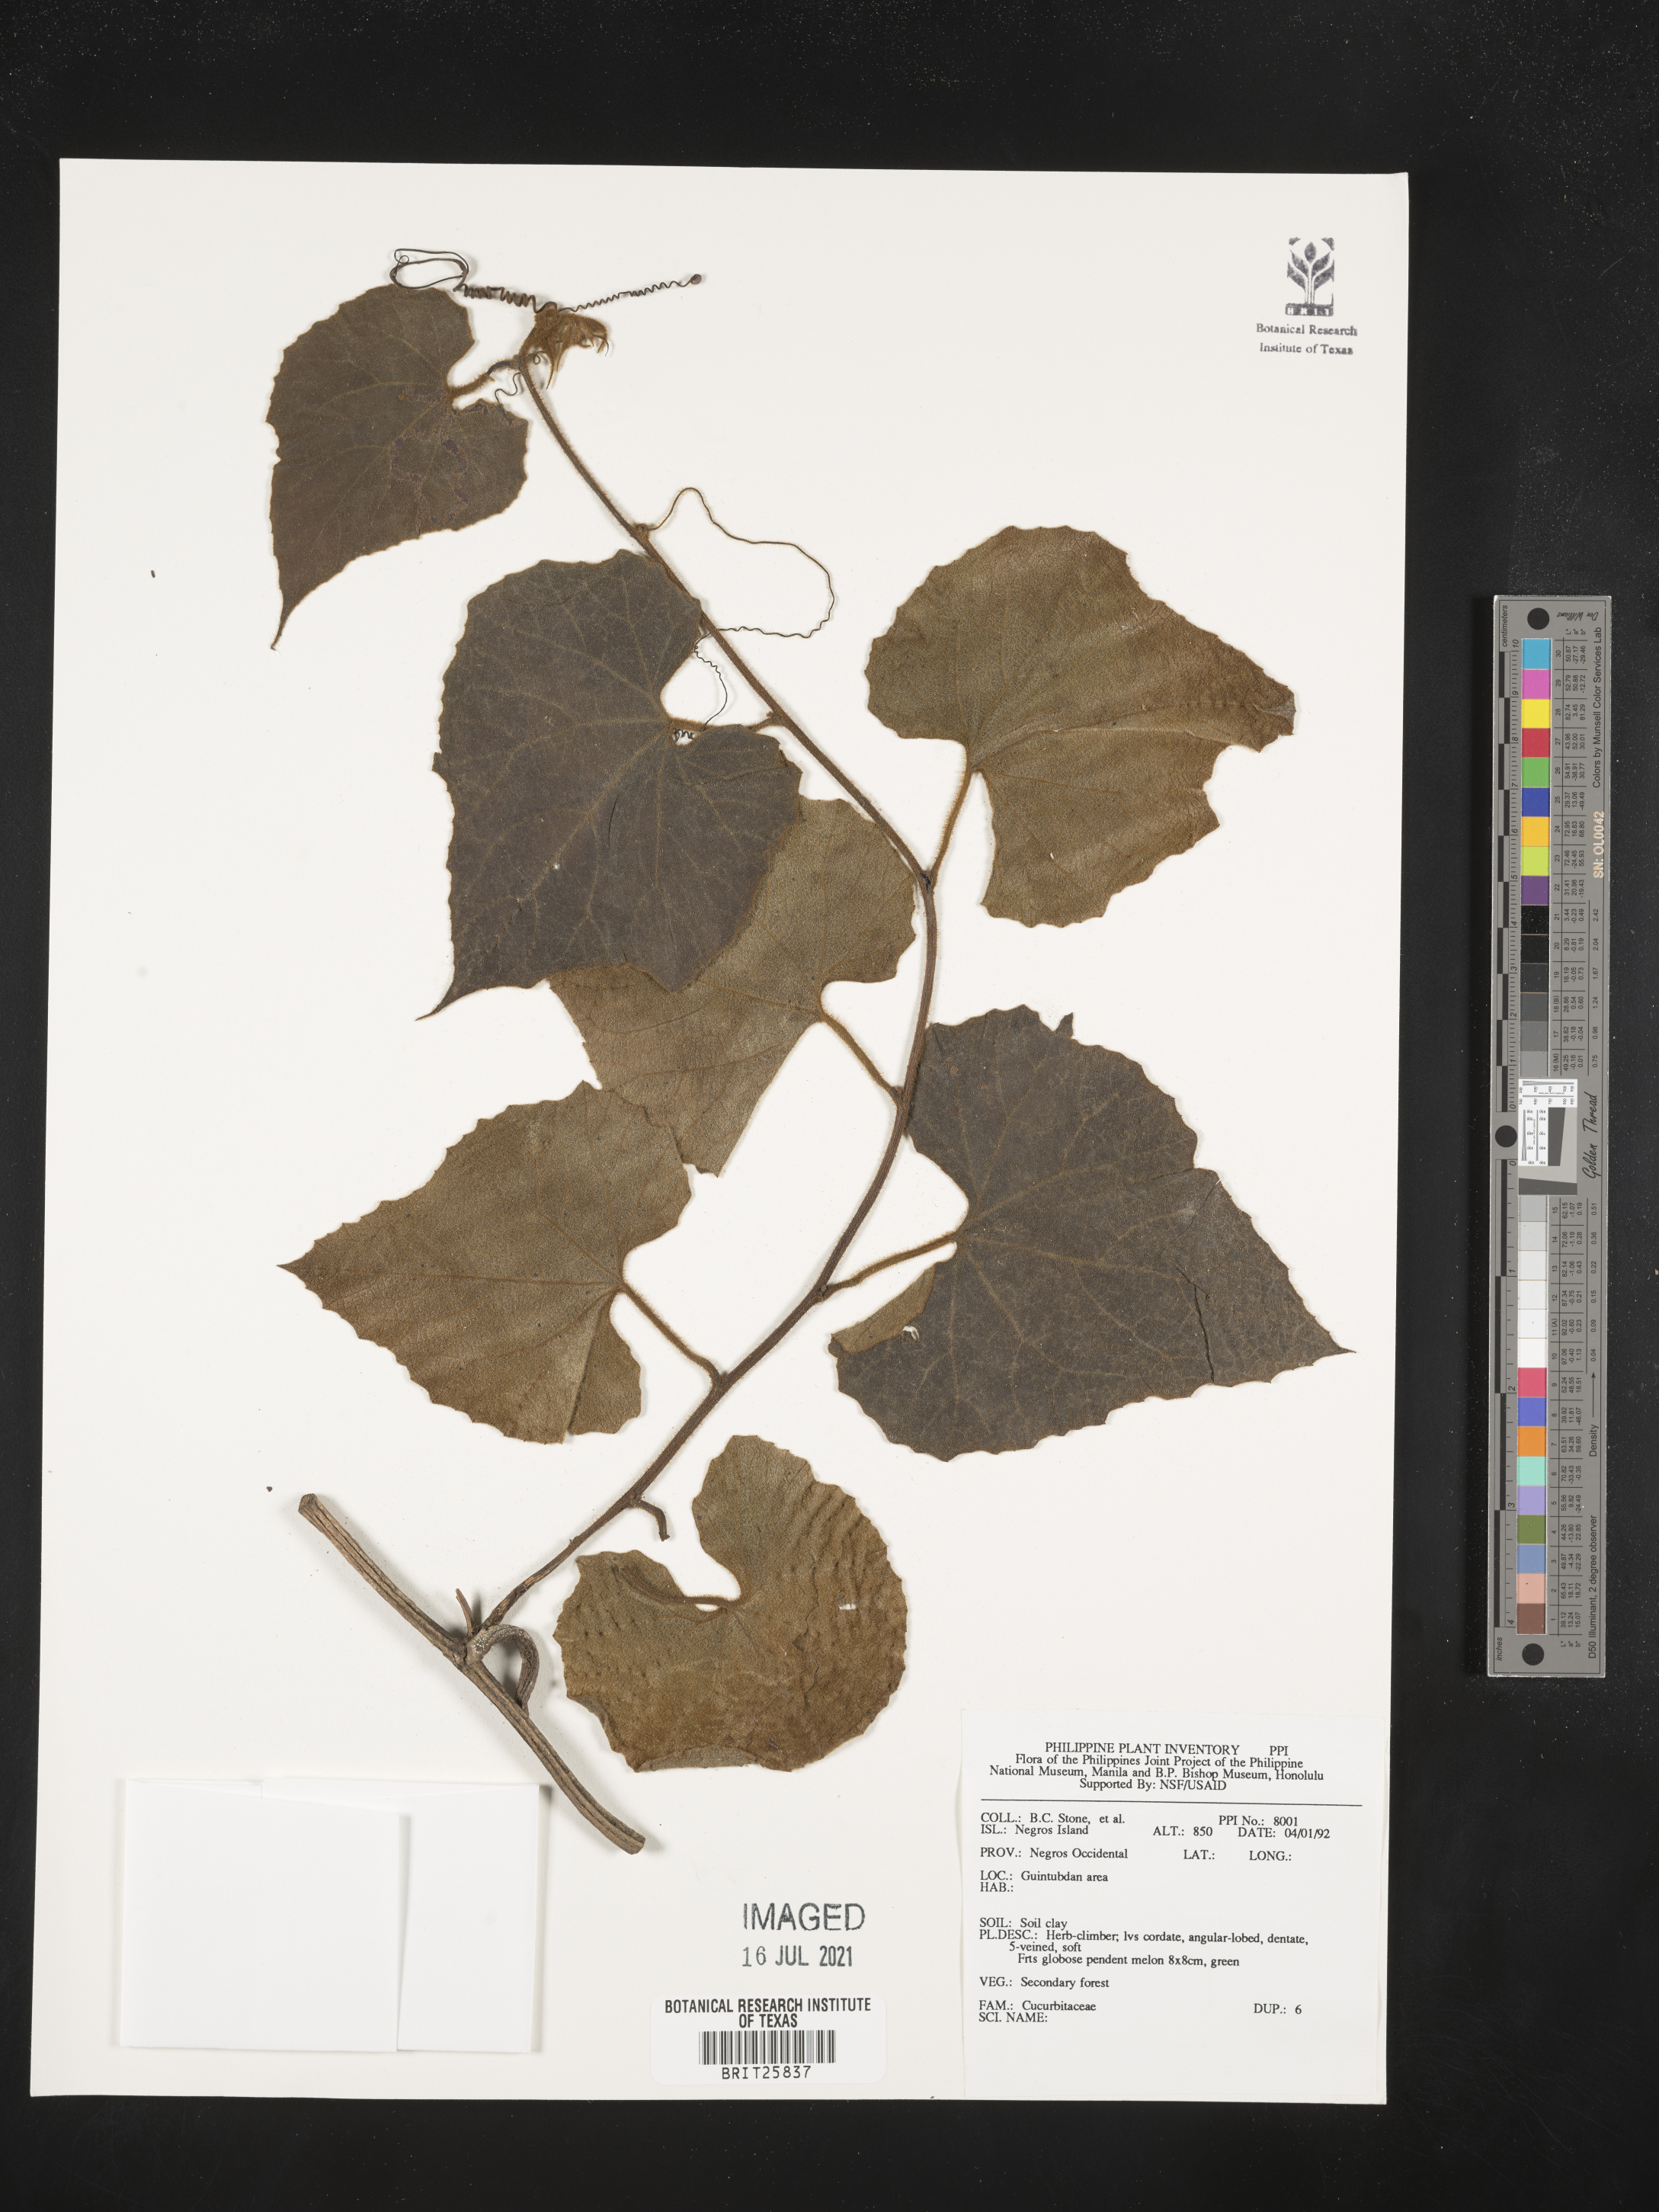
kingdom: Plantae
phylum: Tracheophyta
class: Magnoliopsida
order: Cucurbitales
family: Cucurbitaceae
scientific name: Cucurbitaceae
